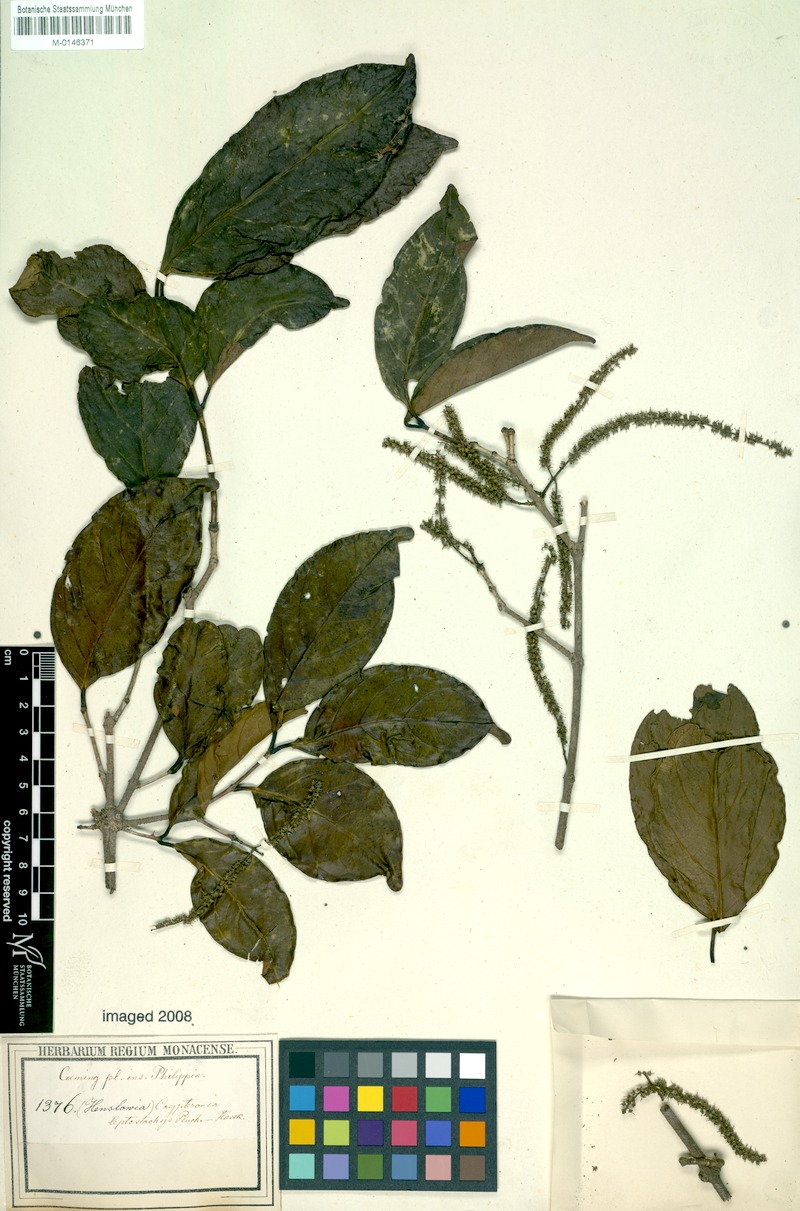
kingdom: Plantae
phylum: Tracheophyta
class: Magnoliopsida
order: Myrtales
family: Crypteroniaceae
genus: Crypteronia
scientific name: Crypteronia paniculata
